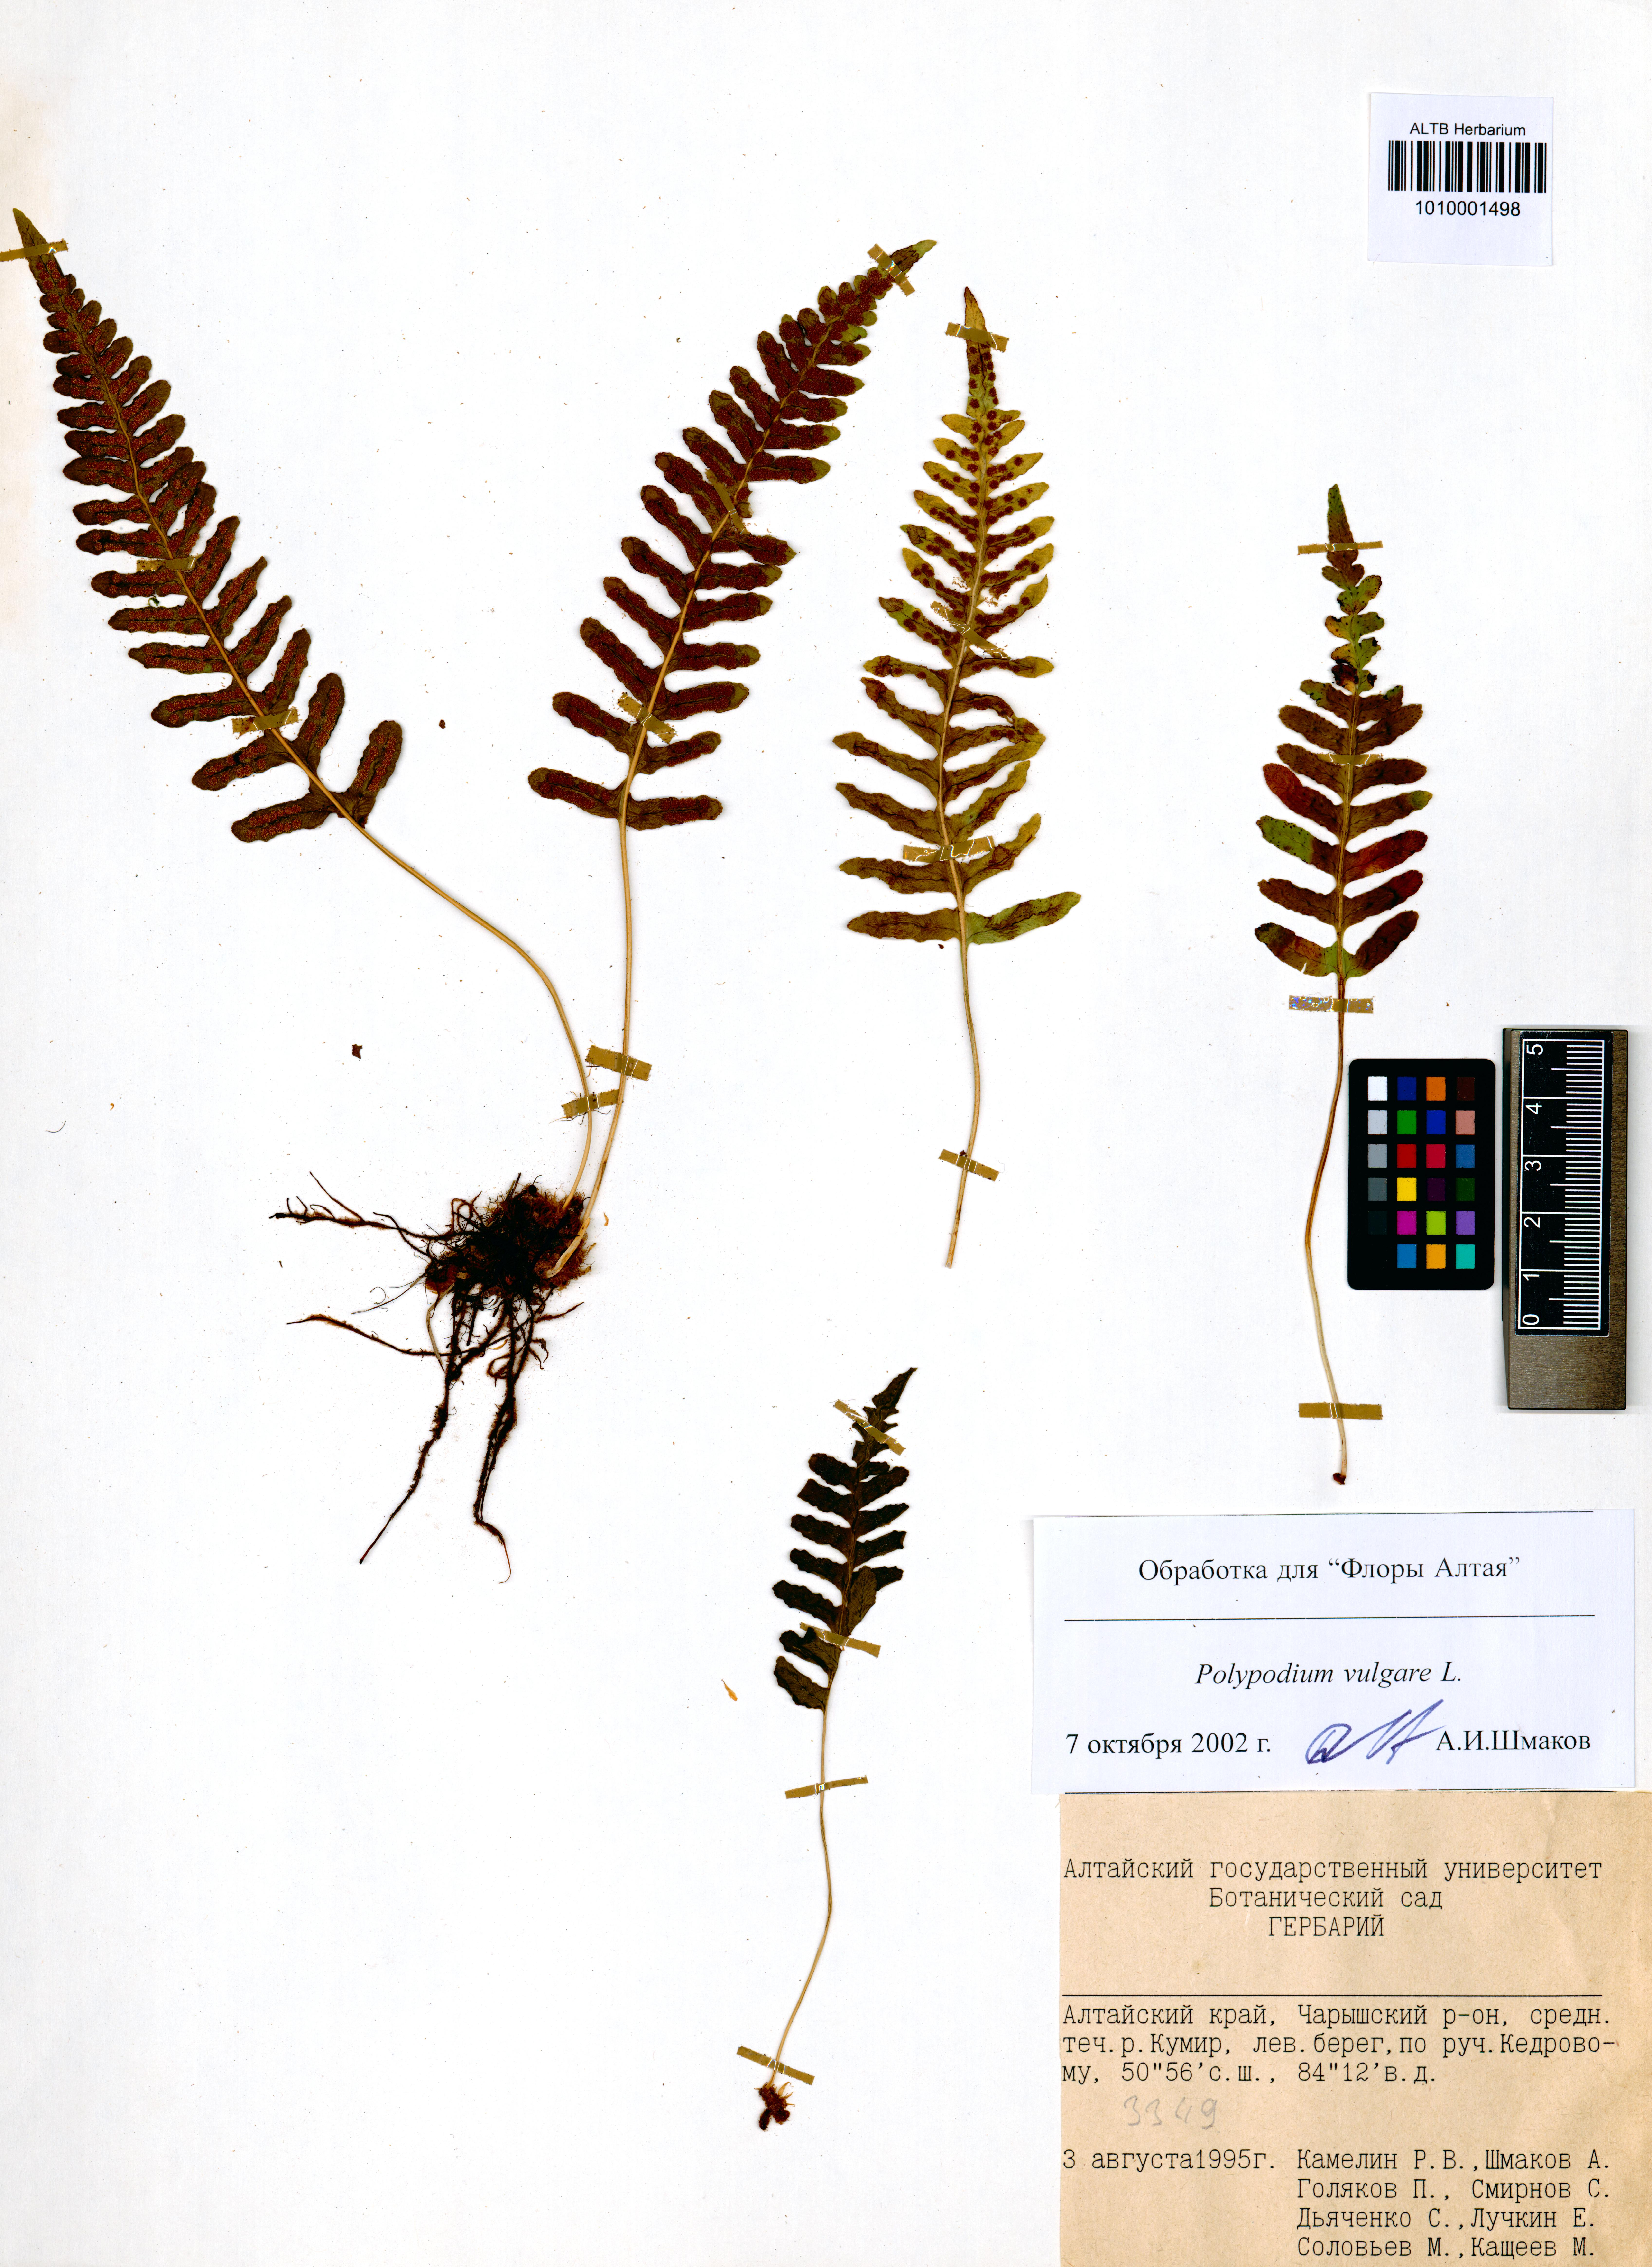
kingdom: Plantae
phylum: Tracheophyta
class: Polypodiopsida
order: Polypodiales
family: Polypodiaceae
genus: Polypodium
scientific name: Polypodium vulgare
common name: Common polypody
